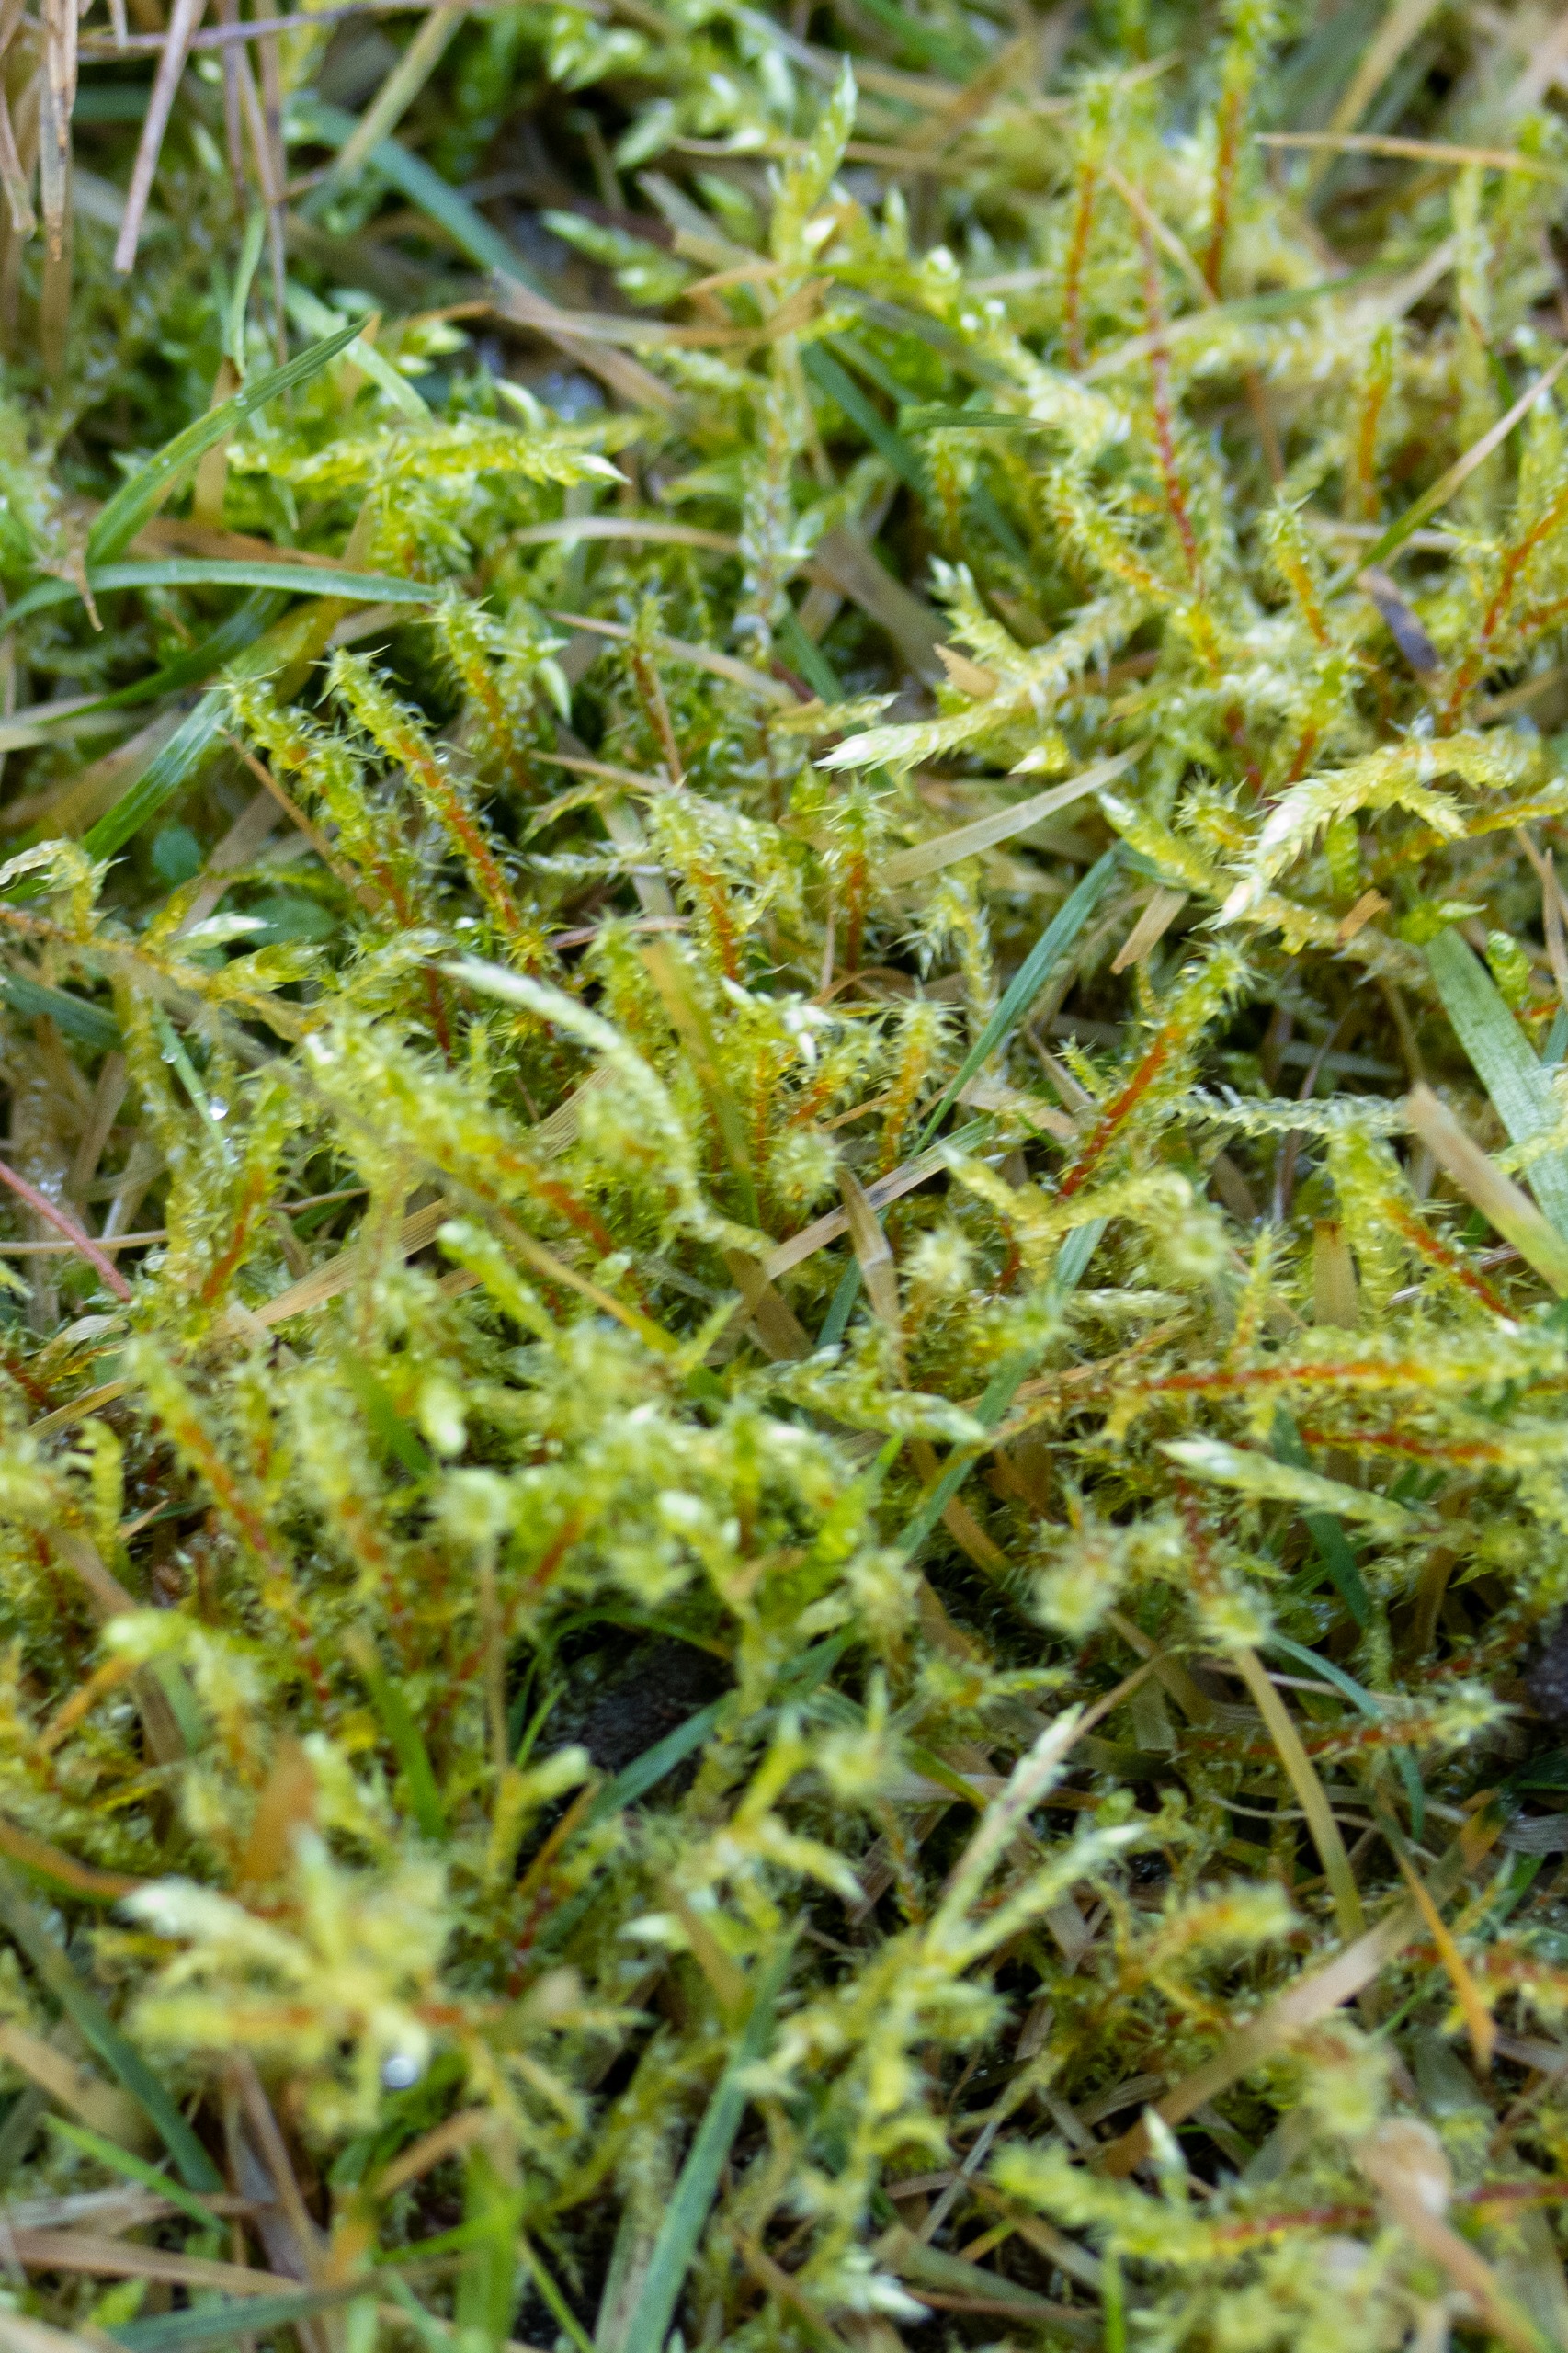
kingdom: Plantae
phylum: Bryophyta
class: Bryopsida
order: Hypnales
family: Hylocomiaceae
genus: Rhytidiadelphus
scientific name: Rhytidiadelphus squarrosus
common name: Plæne-kransemos
